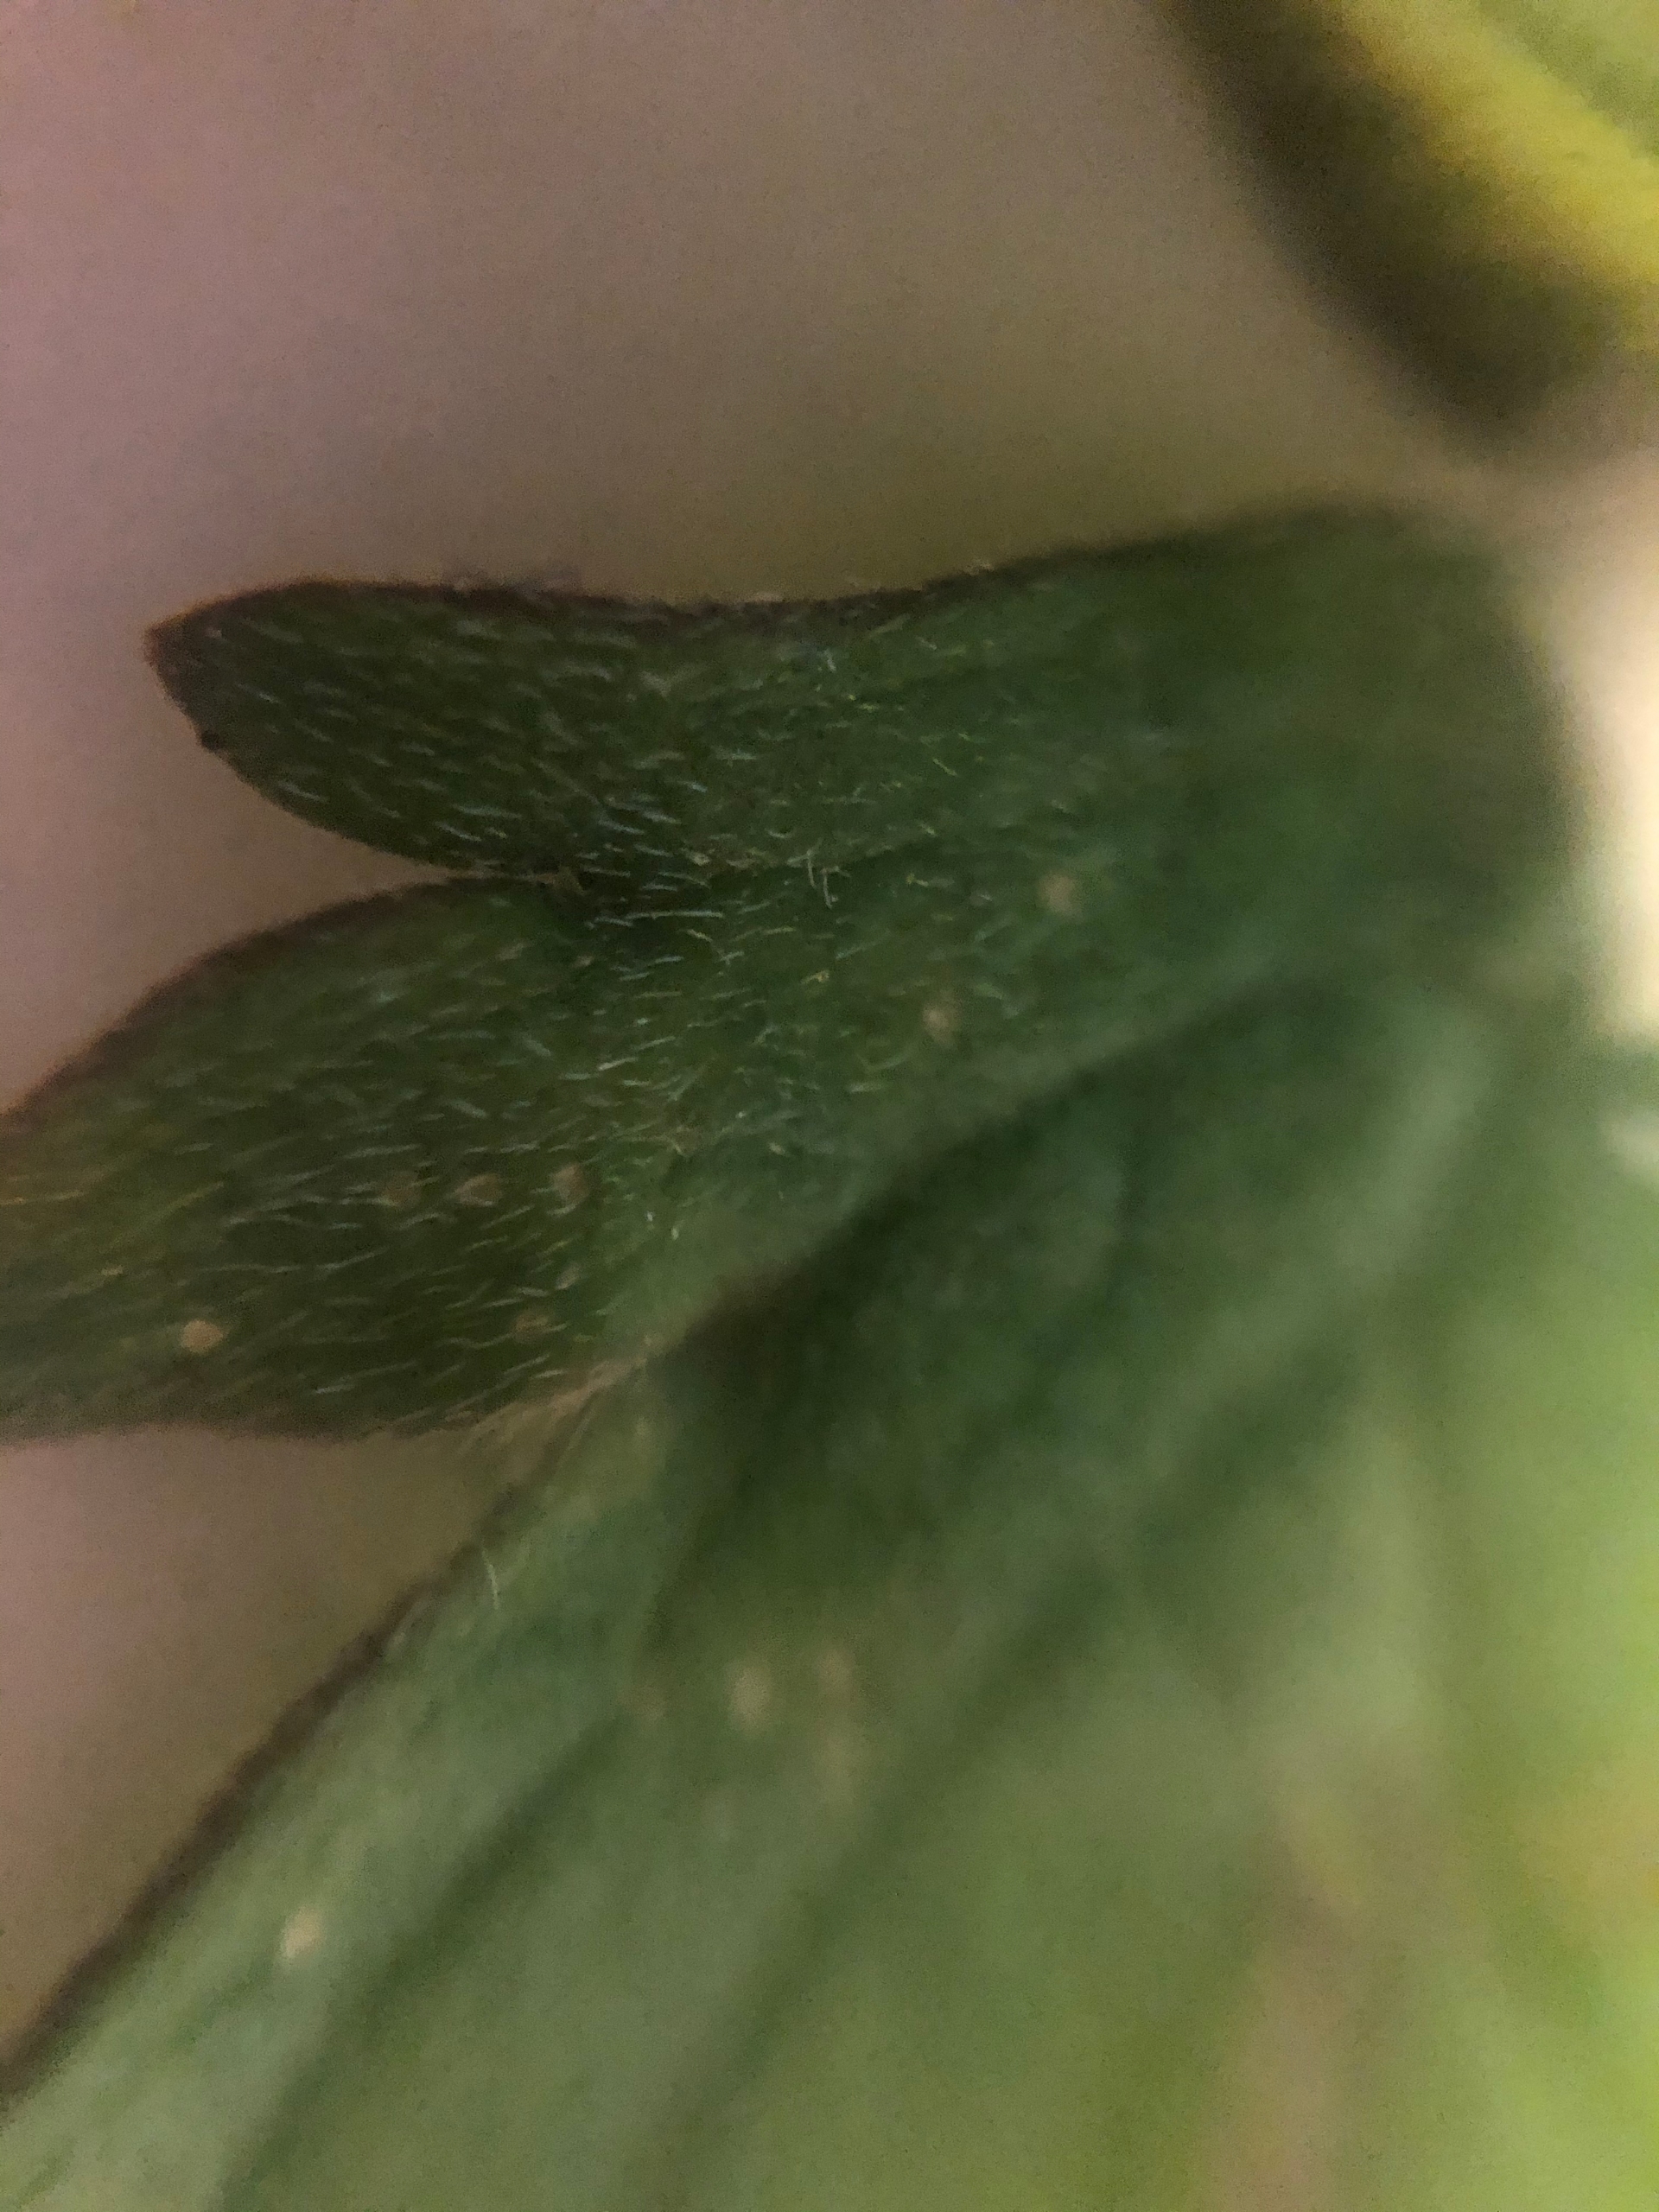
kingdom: Plantae
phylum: Tracheophyta
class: Magnoliopsida
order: Ranunculales
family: Ranunculaceae
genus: Ranunculus
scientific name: Ranunculus acris
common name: Bidende ranunkel
